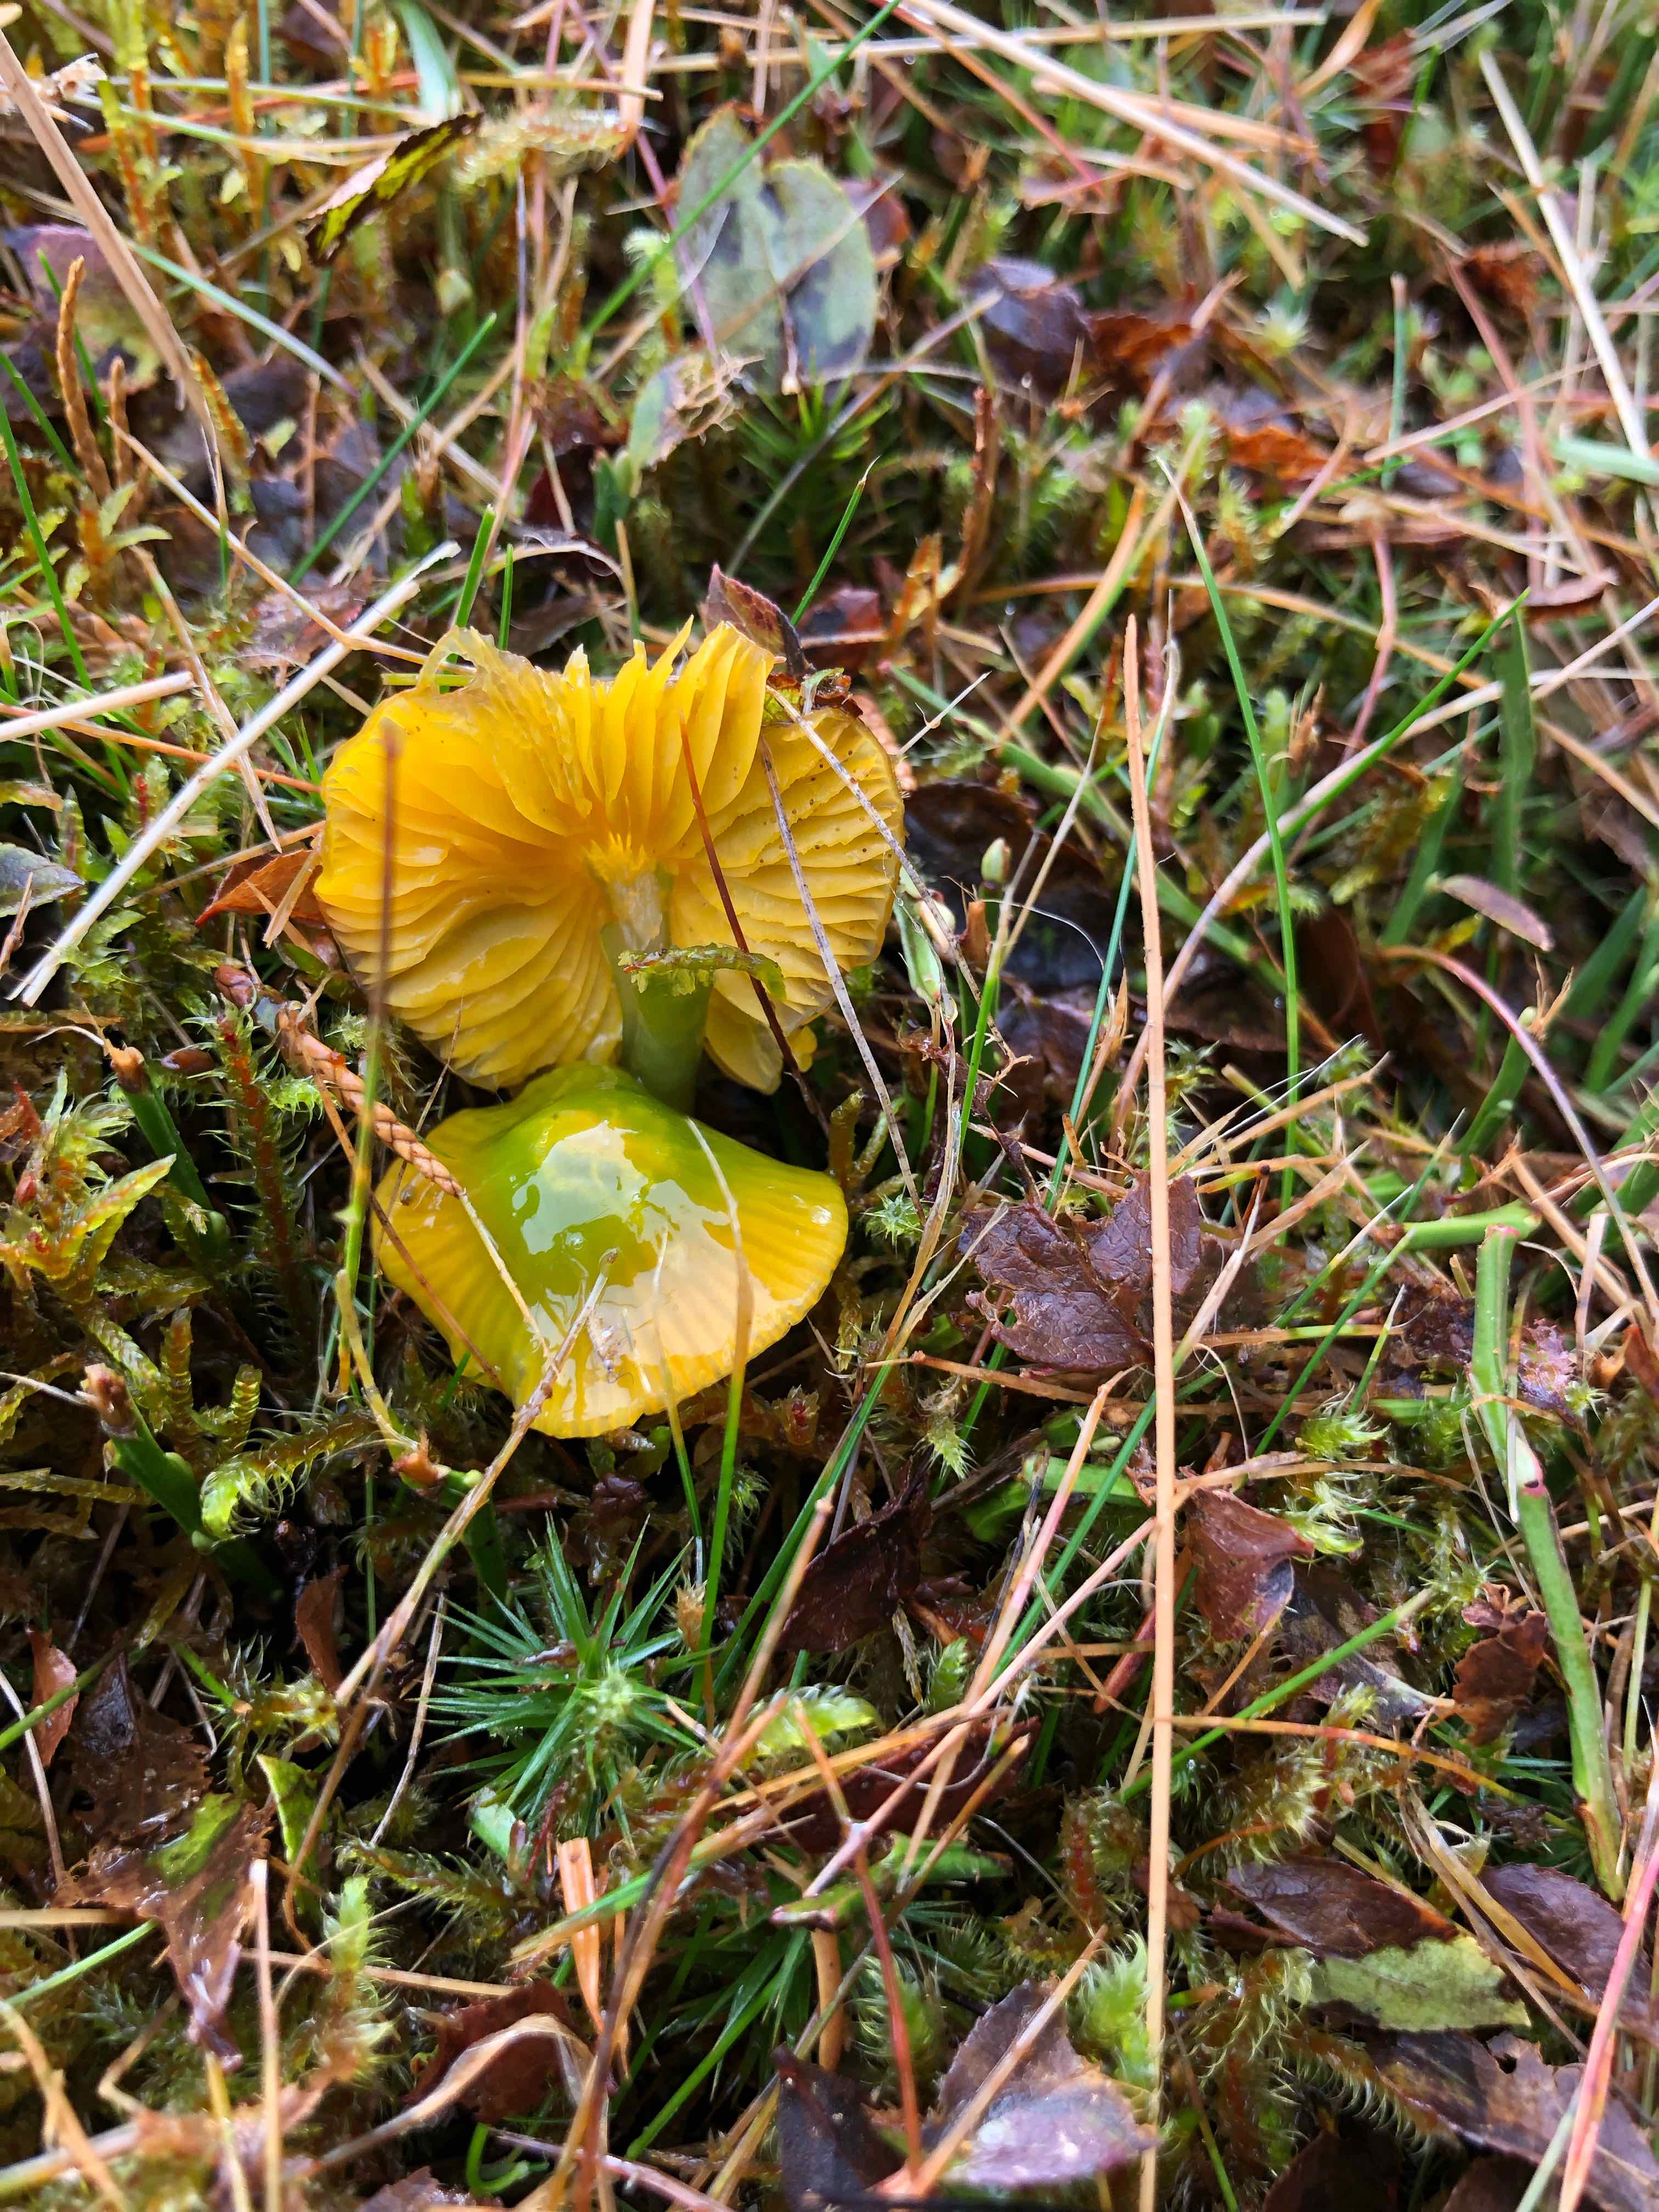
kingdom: Fungi
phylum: Basidiomycota
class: Agaricomycetes
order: Agaricales
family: Hygrophoraceae
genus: Gliophorus
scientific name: Gliophorus psittacinus
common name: papegøje-vokshat
